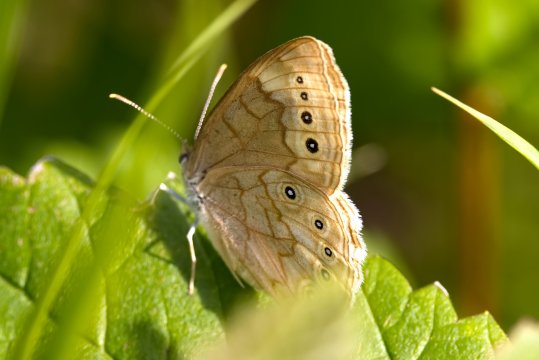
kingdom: Animalia
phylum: Arthropoda
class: Insecta
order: Lepidoptera
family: Nymphalidae
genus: Lethe
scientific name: Lethe eurydice
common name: Eyed Brown
